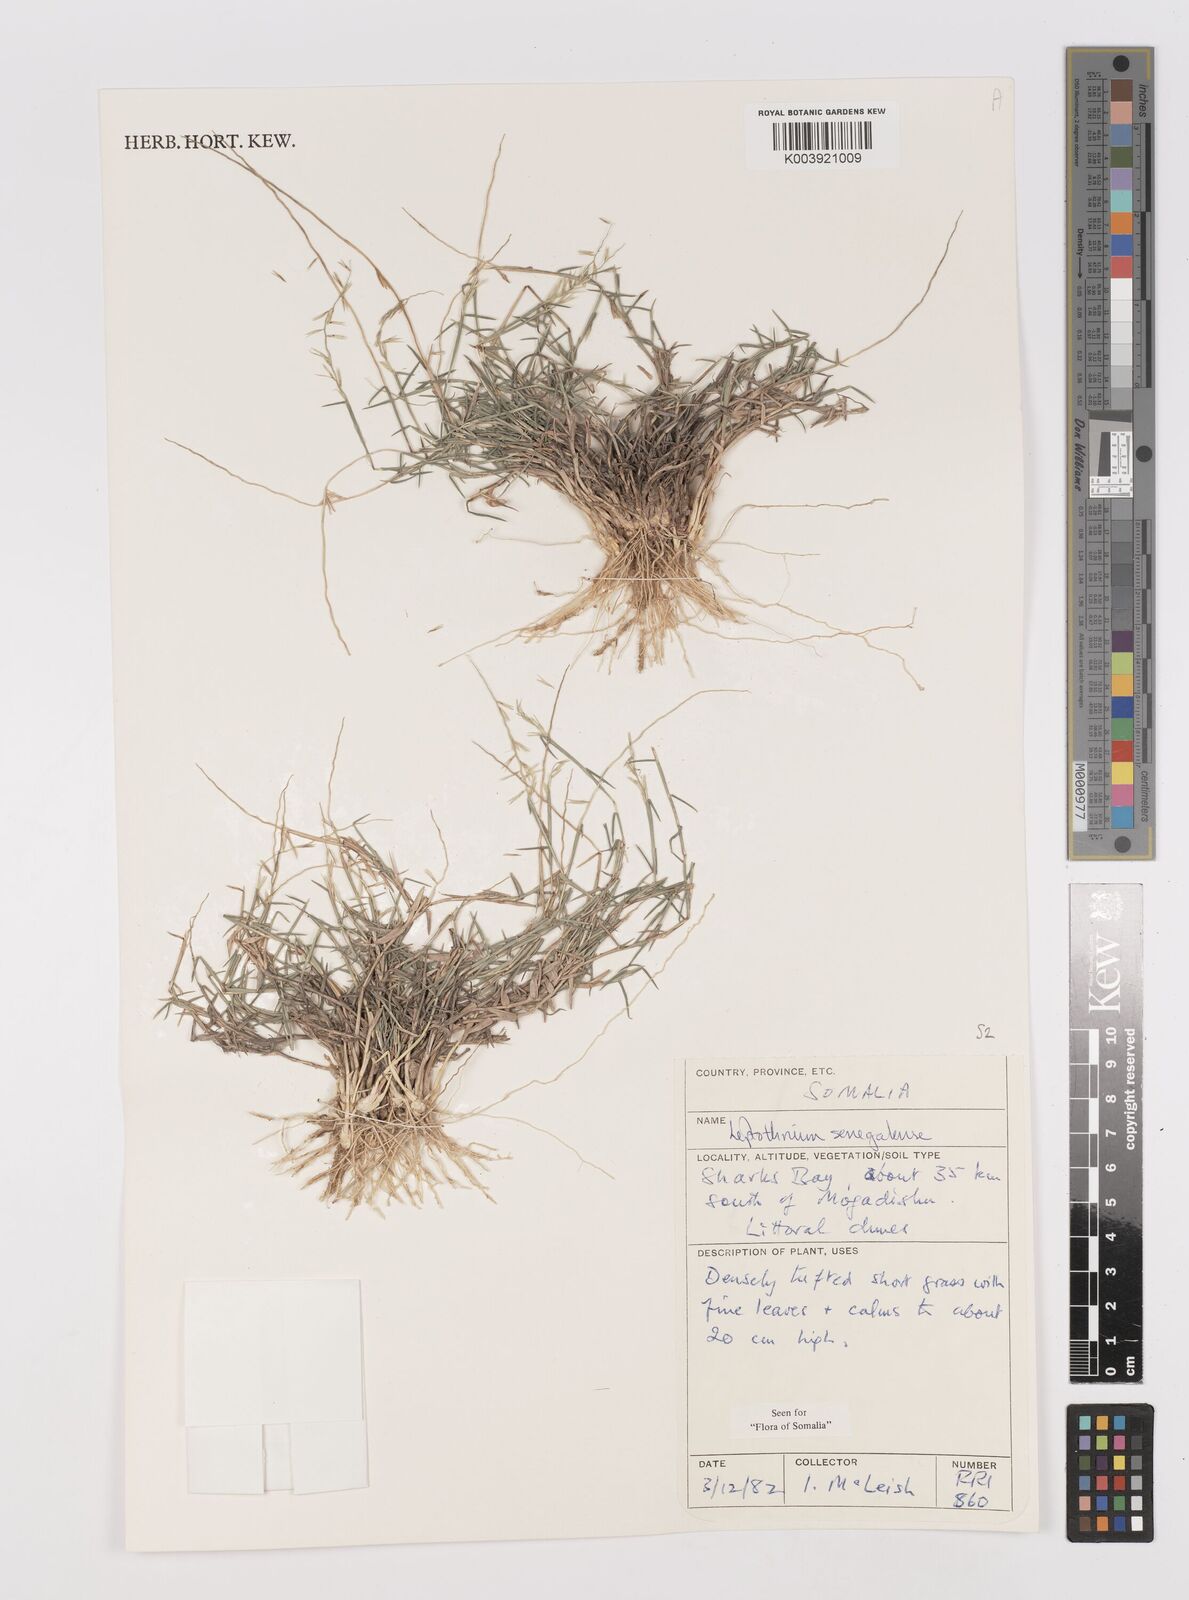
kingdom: Plantae
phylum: Tracheophyta
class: Liliopsida
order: Poales
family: Poaceae
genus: Leptothrium
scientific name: Leptothrium senegalense
